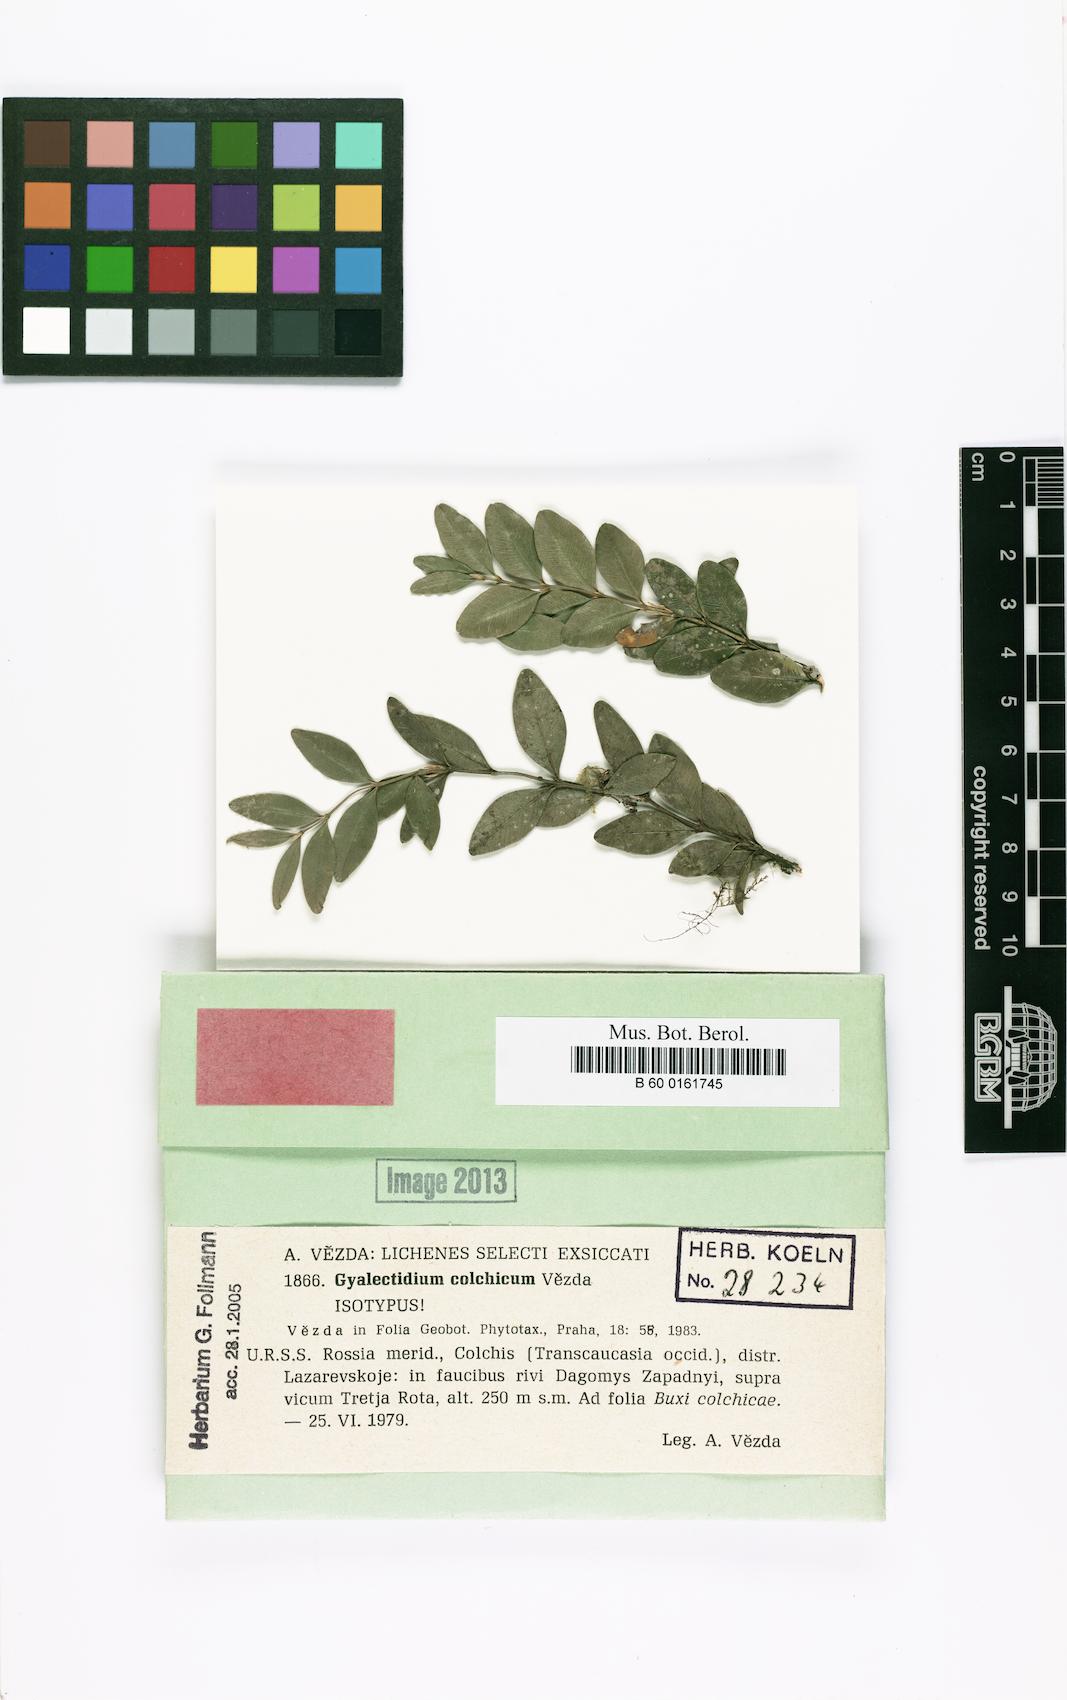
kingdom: Fungi
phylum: Ascomycota
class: Lecanoromycetes
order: Ostropales
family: Gomphillaceae
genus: Gyalectidium
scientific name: Gyalectidium colchicum
